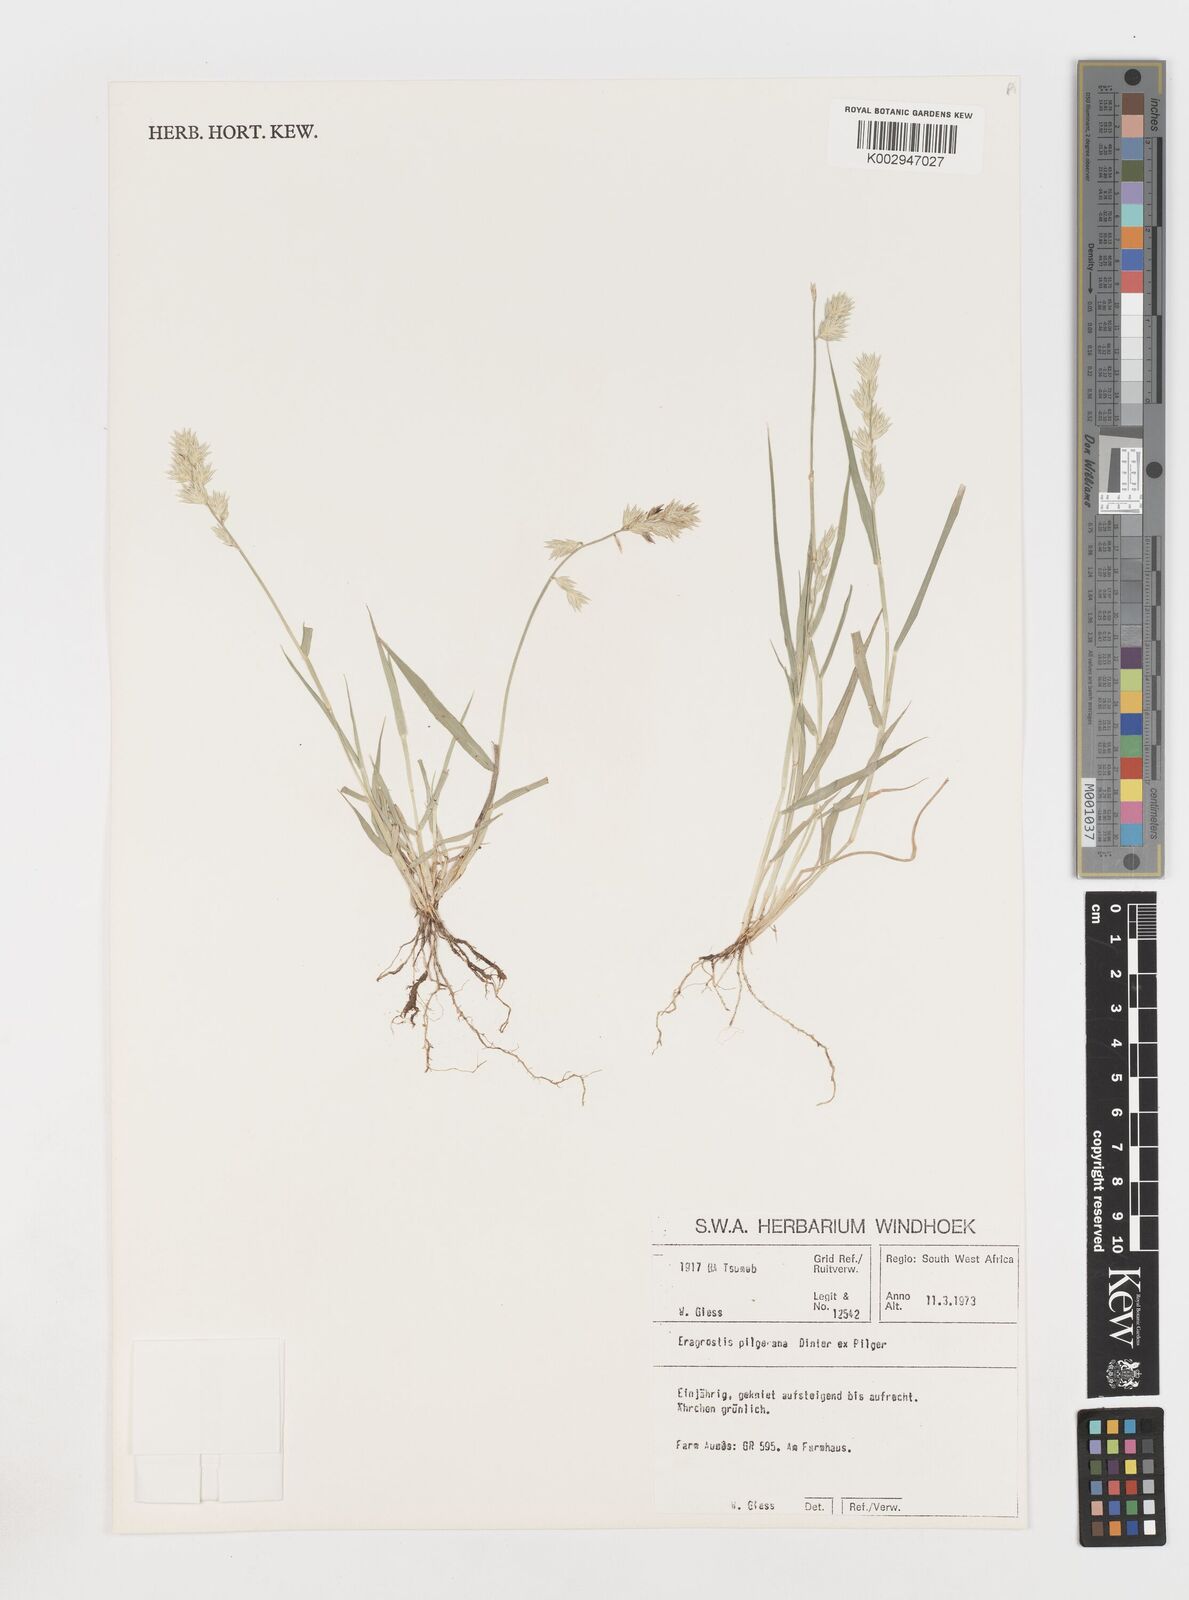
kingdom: Plantae
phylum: Tracheophyta
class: Liliopsida
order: Poales
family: Poaceae
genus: Eragrostis
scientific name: Eragrostis pilgeriana
